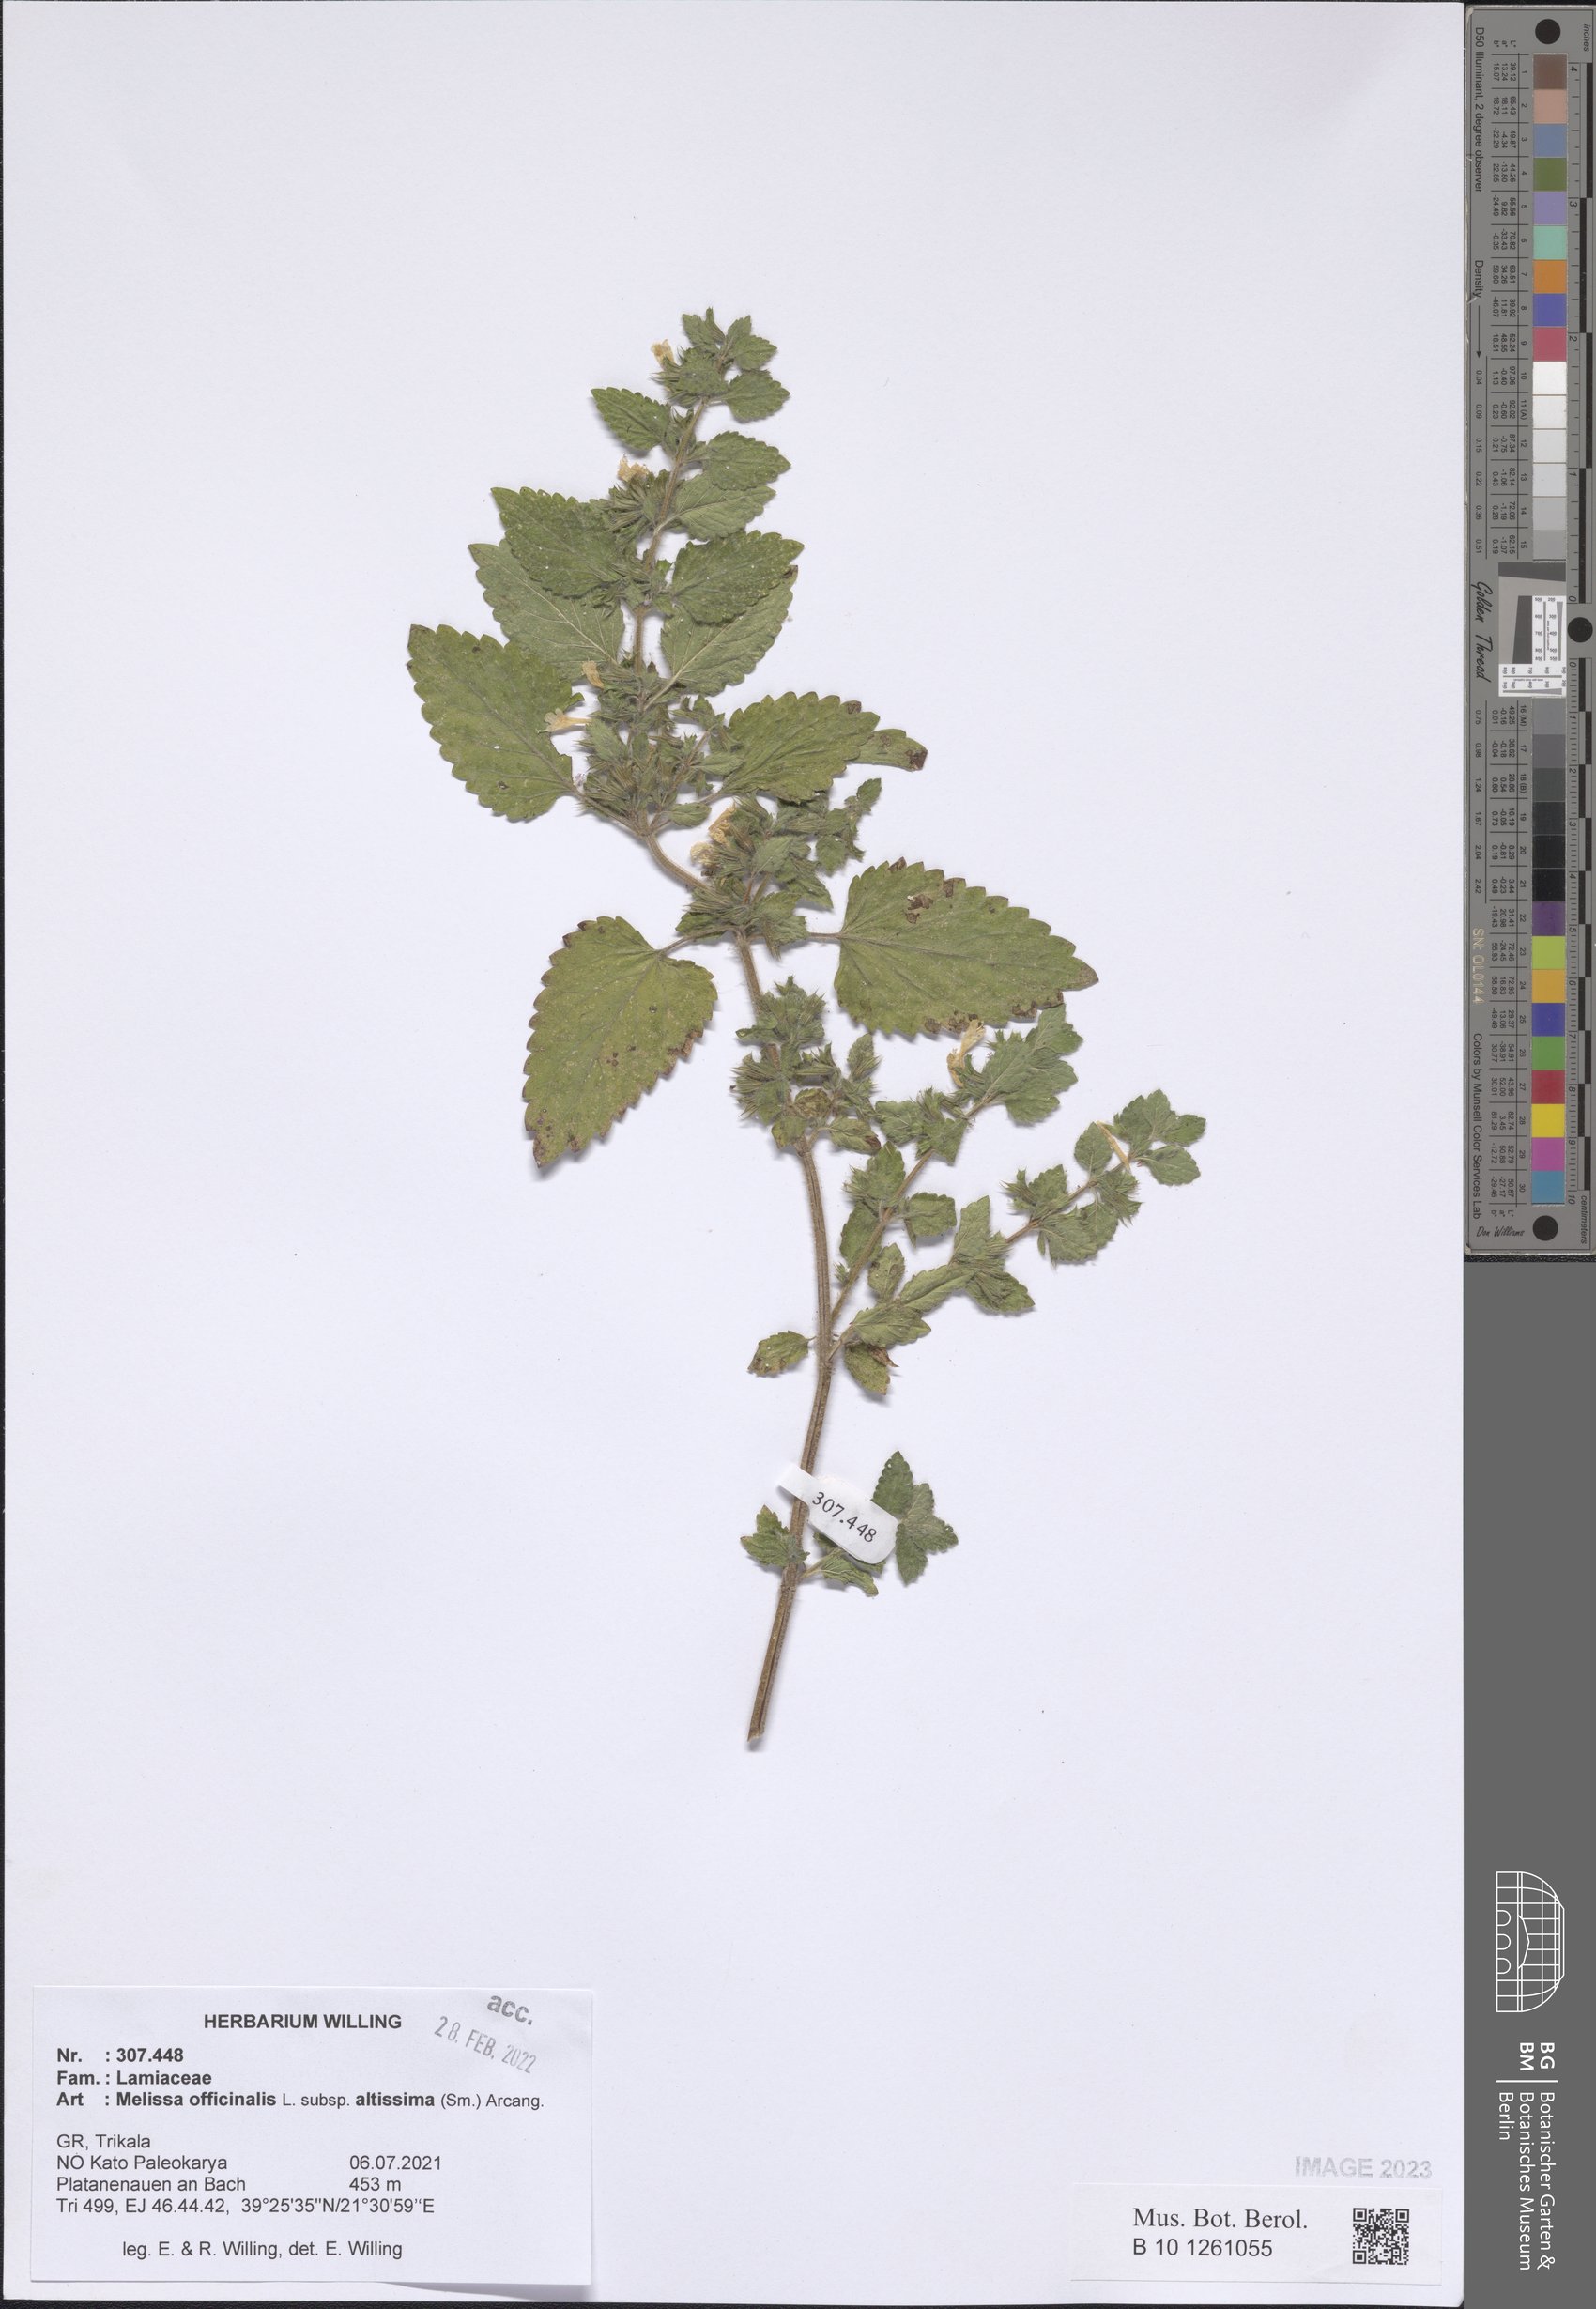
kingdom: Plantae
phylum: Tracheophyta
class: Magnoliopsida
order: Lamiales
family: Lamiaceae
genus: Melissa
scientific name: Melissa officinalis
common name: Balm
